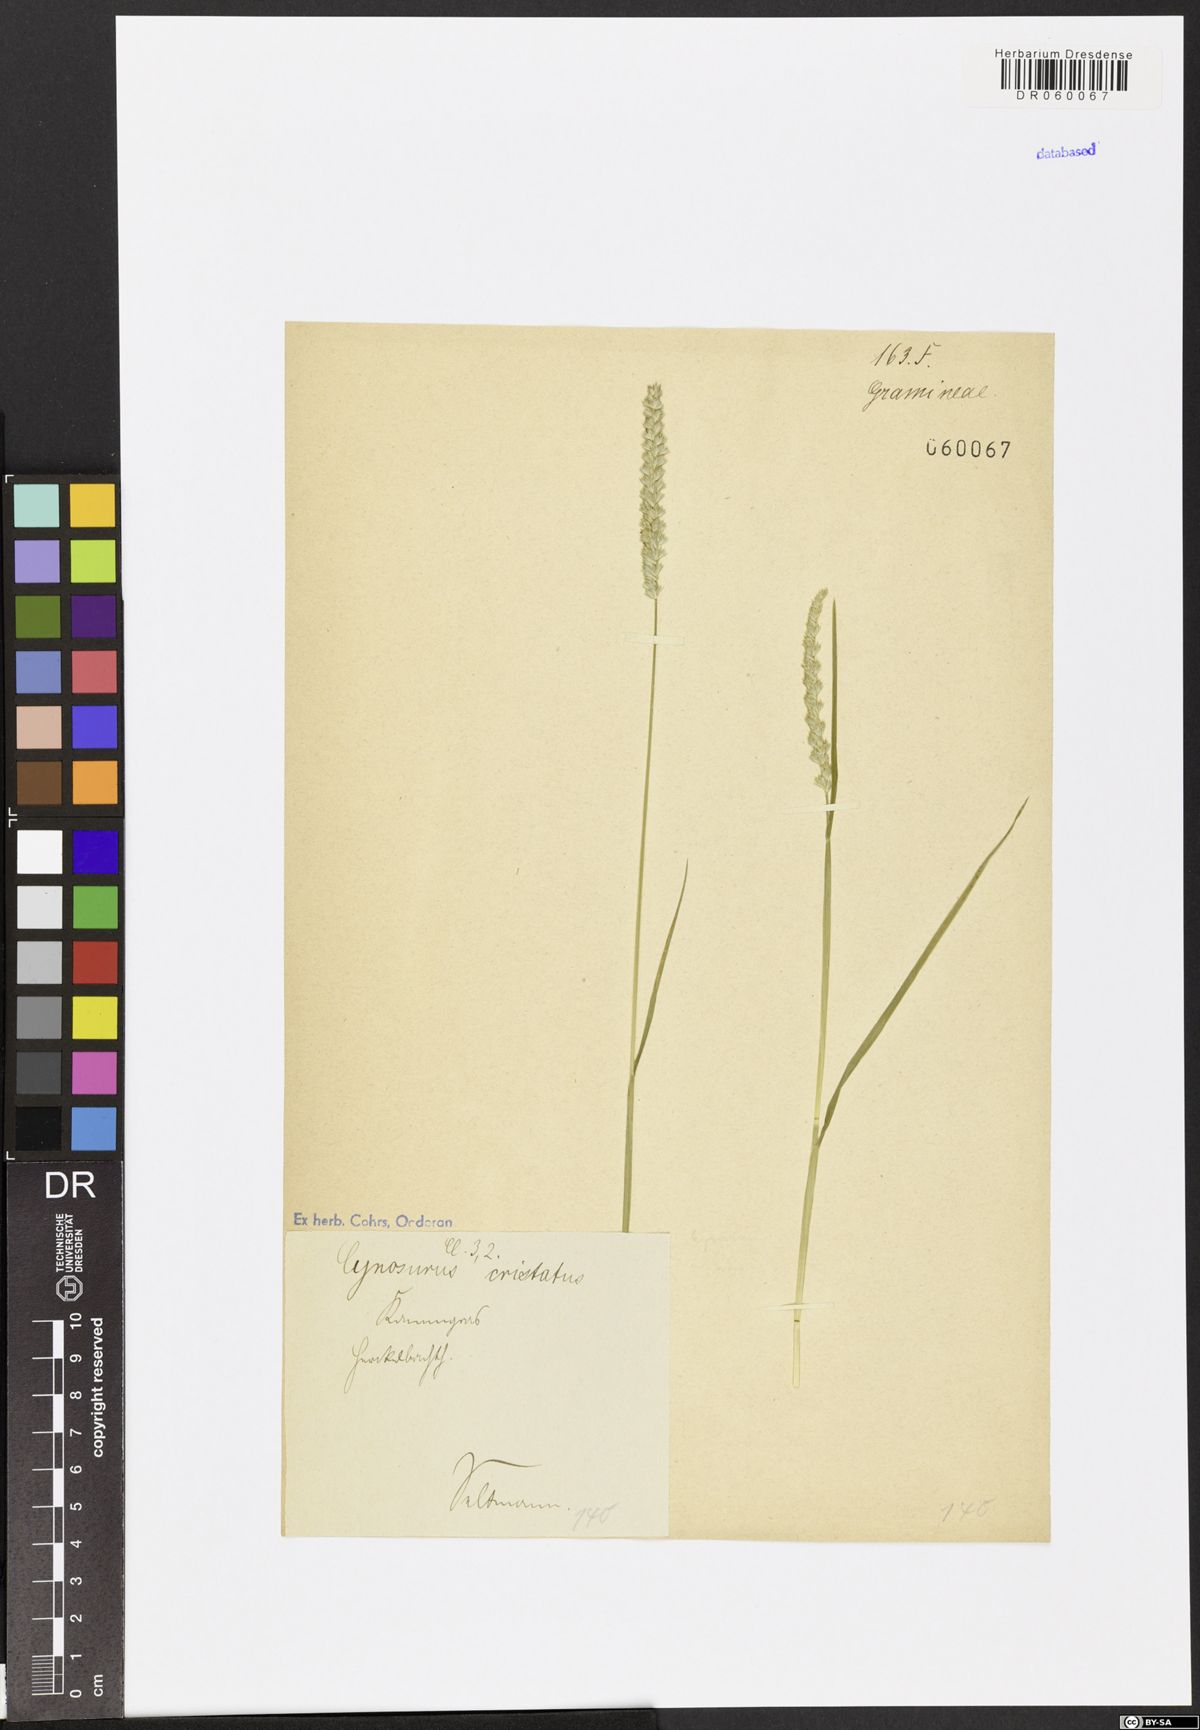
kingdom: Plantae
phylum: Tracheophyta
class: Liliopsida
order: Poales
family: Poaceae
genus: Cynosurus
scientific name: Cynosurus cristatus
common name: Crested dog's-tail
